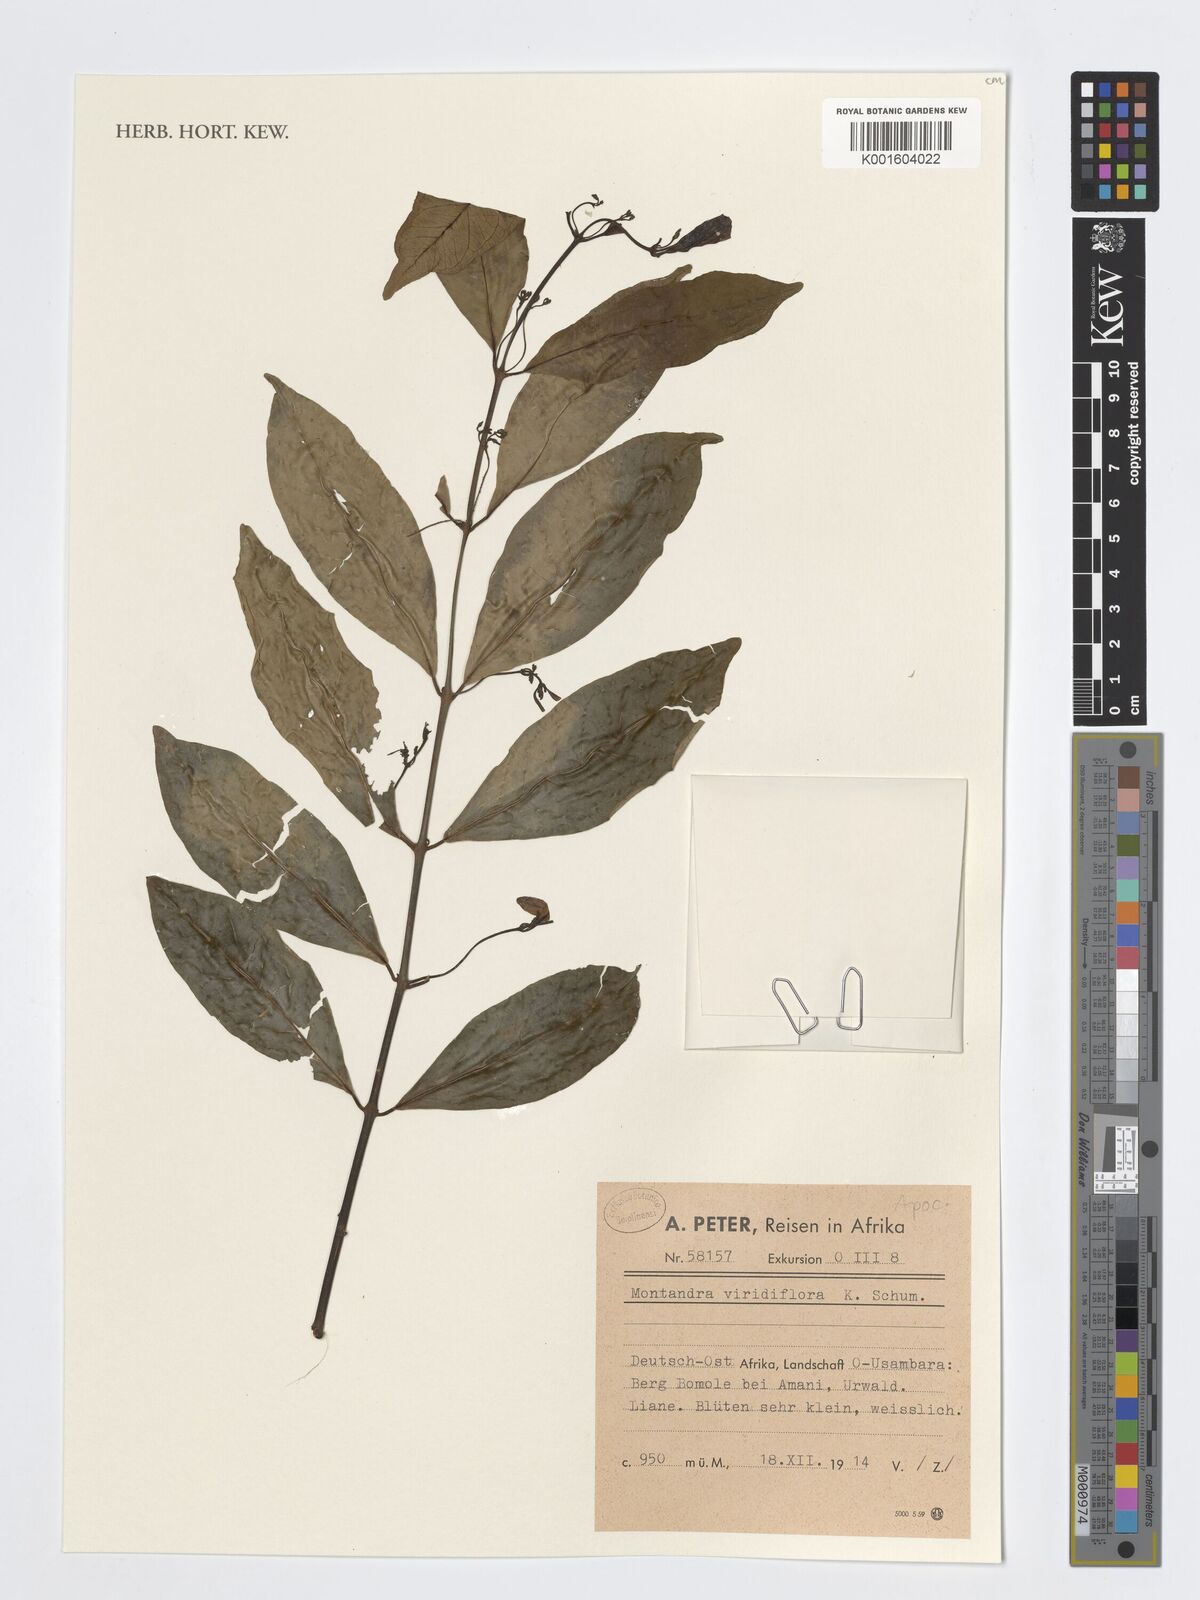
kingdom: Plantae
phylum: Tracheophyta
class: Magnoliopsida
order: Gentianales
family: Apocynaceae
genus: Baissea
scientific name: Baissea viridiflora
